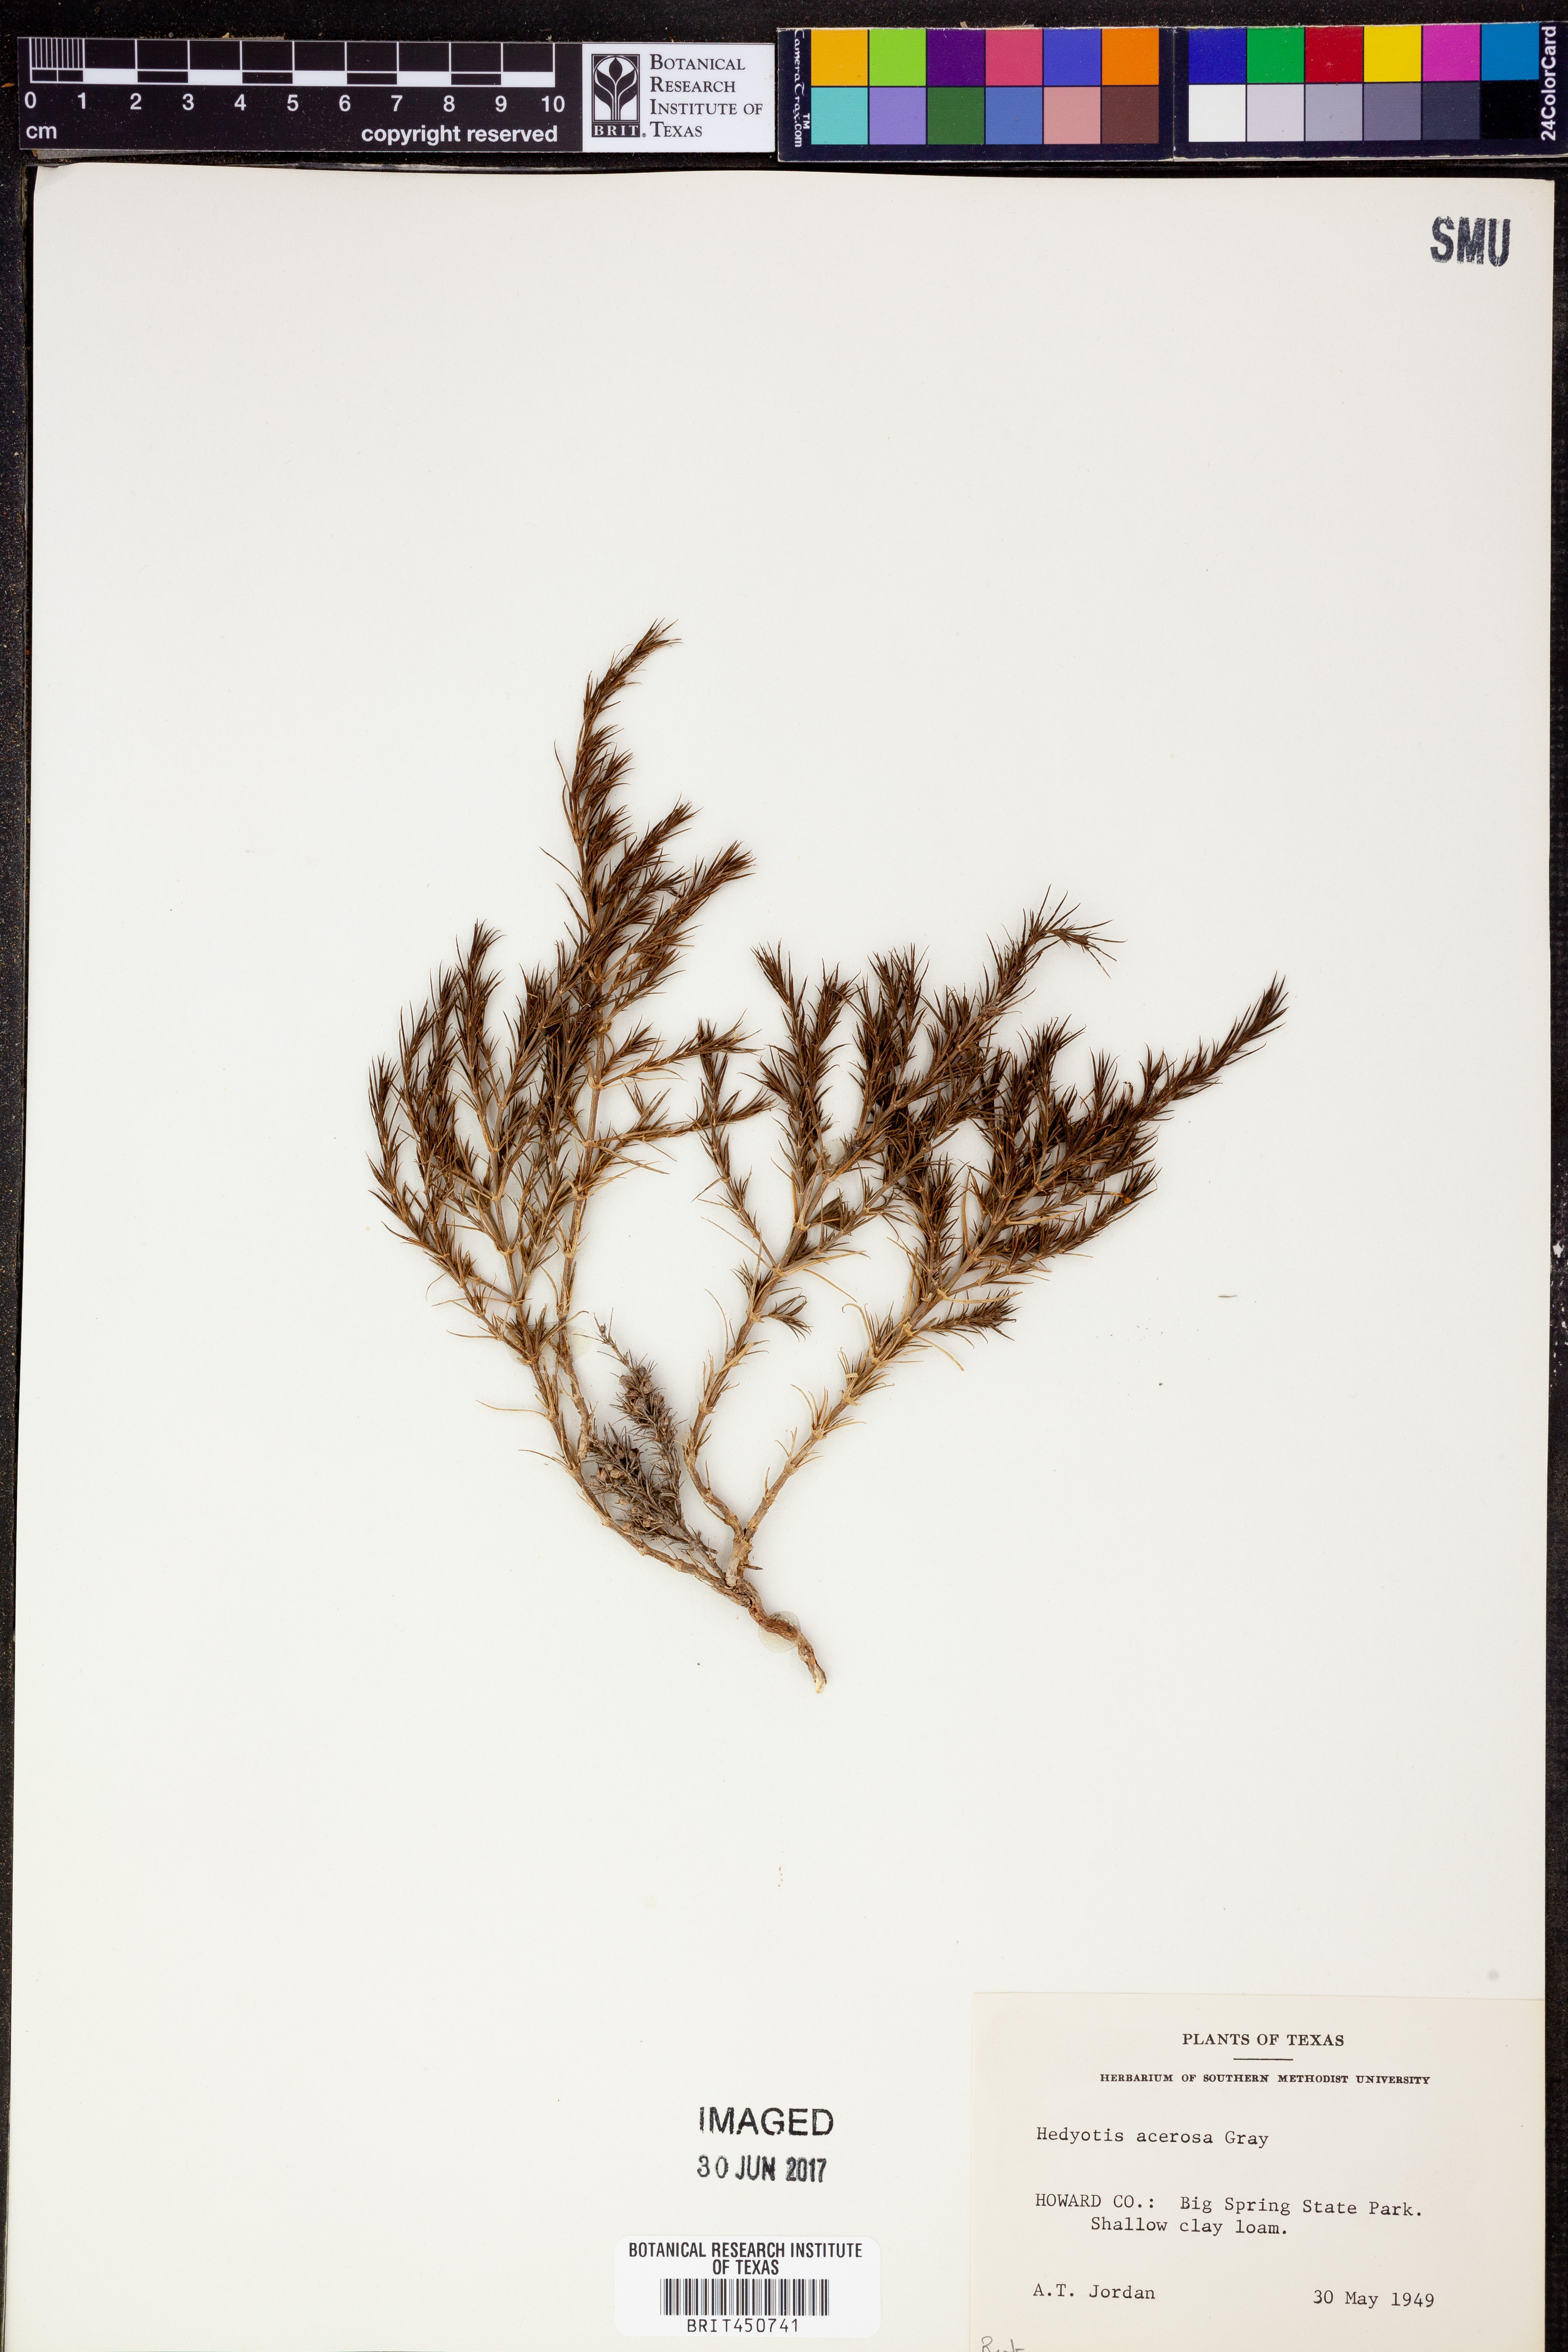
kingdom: Plantae
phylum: Tracheophyta
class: Magnoliopsida
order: Gentianales
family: Rubiaceae
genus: Houstonia
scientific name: Houstonia acerosa
